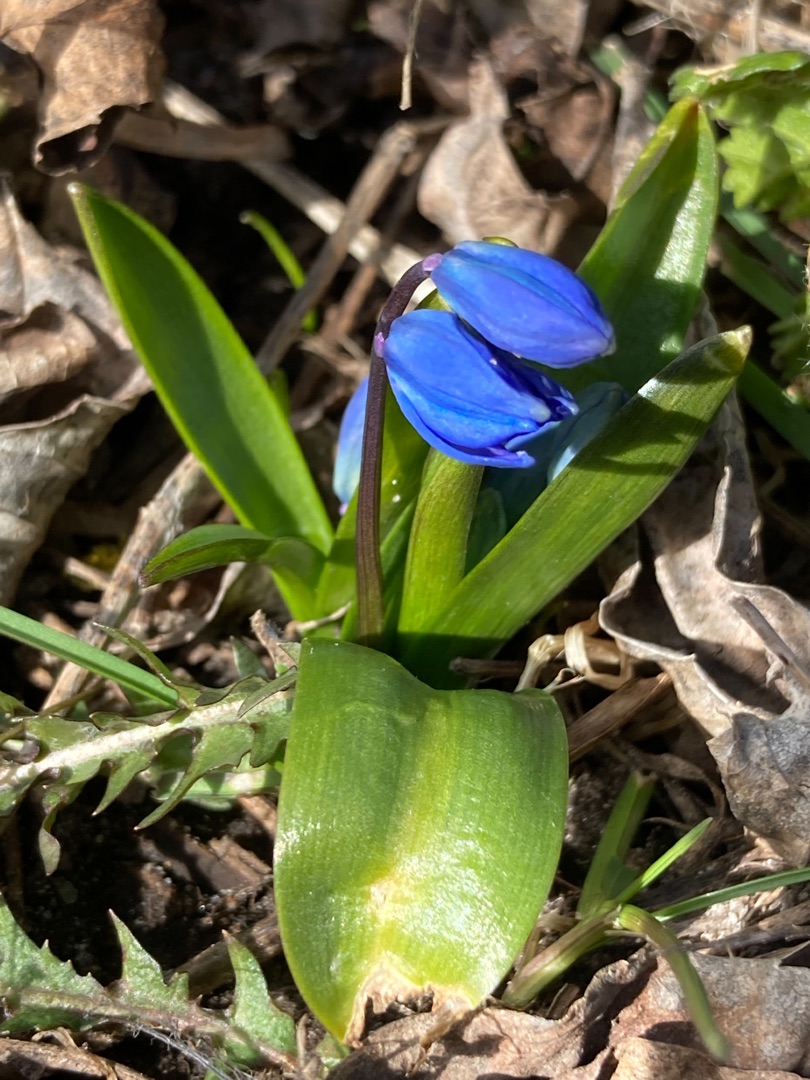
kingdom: Plantae
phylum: Tracheophyta
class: Liliopsida
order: Asparagales
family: Asparagaceae
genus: Scilla
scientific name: Scilla siberica
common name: Russisk skilla
